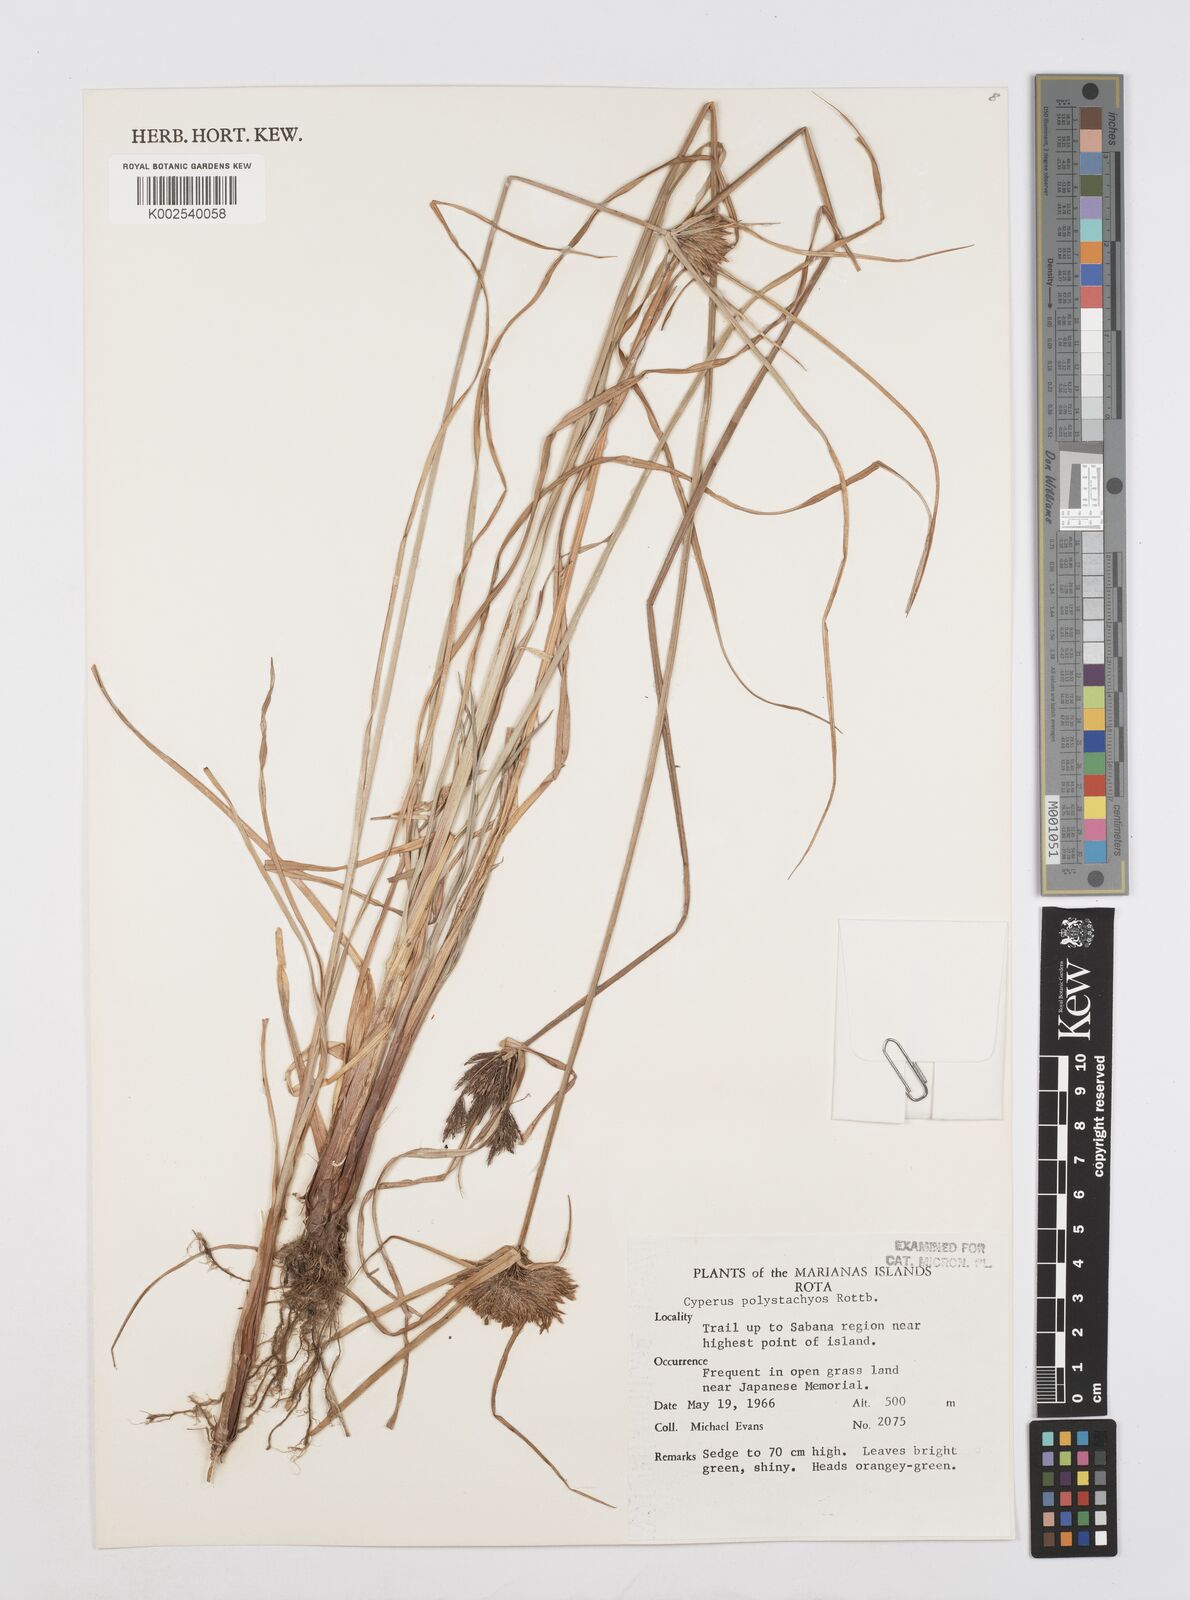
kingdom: Plantae
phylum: Tracheophyta
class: Liliopsida
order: Poales
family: Cyperaceae
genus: Cyperus
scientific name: Cyperus polystachyos
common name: Bunchy flat sedge
